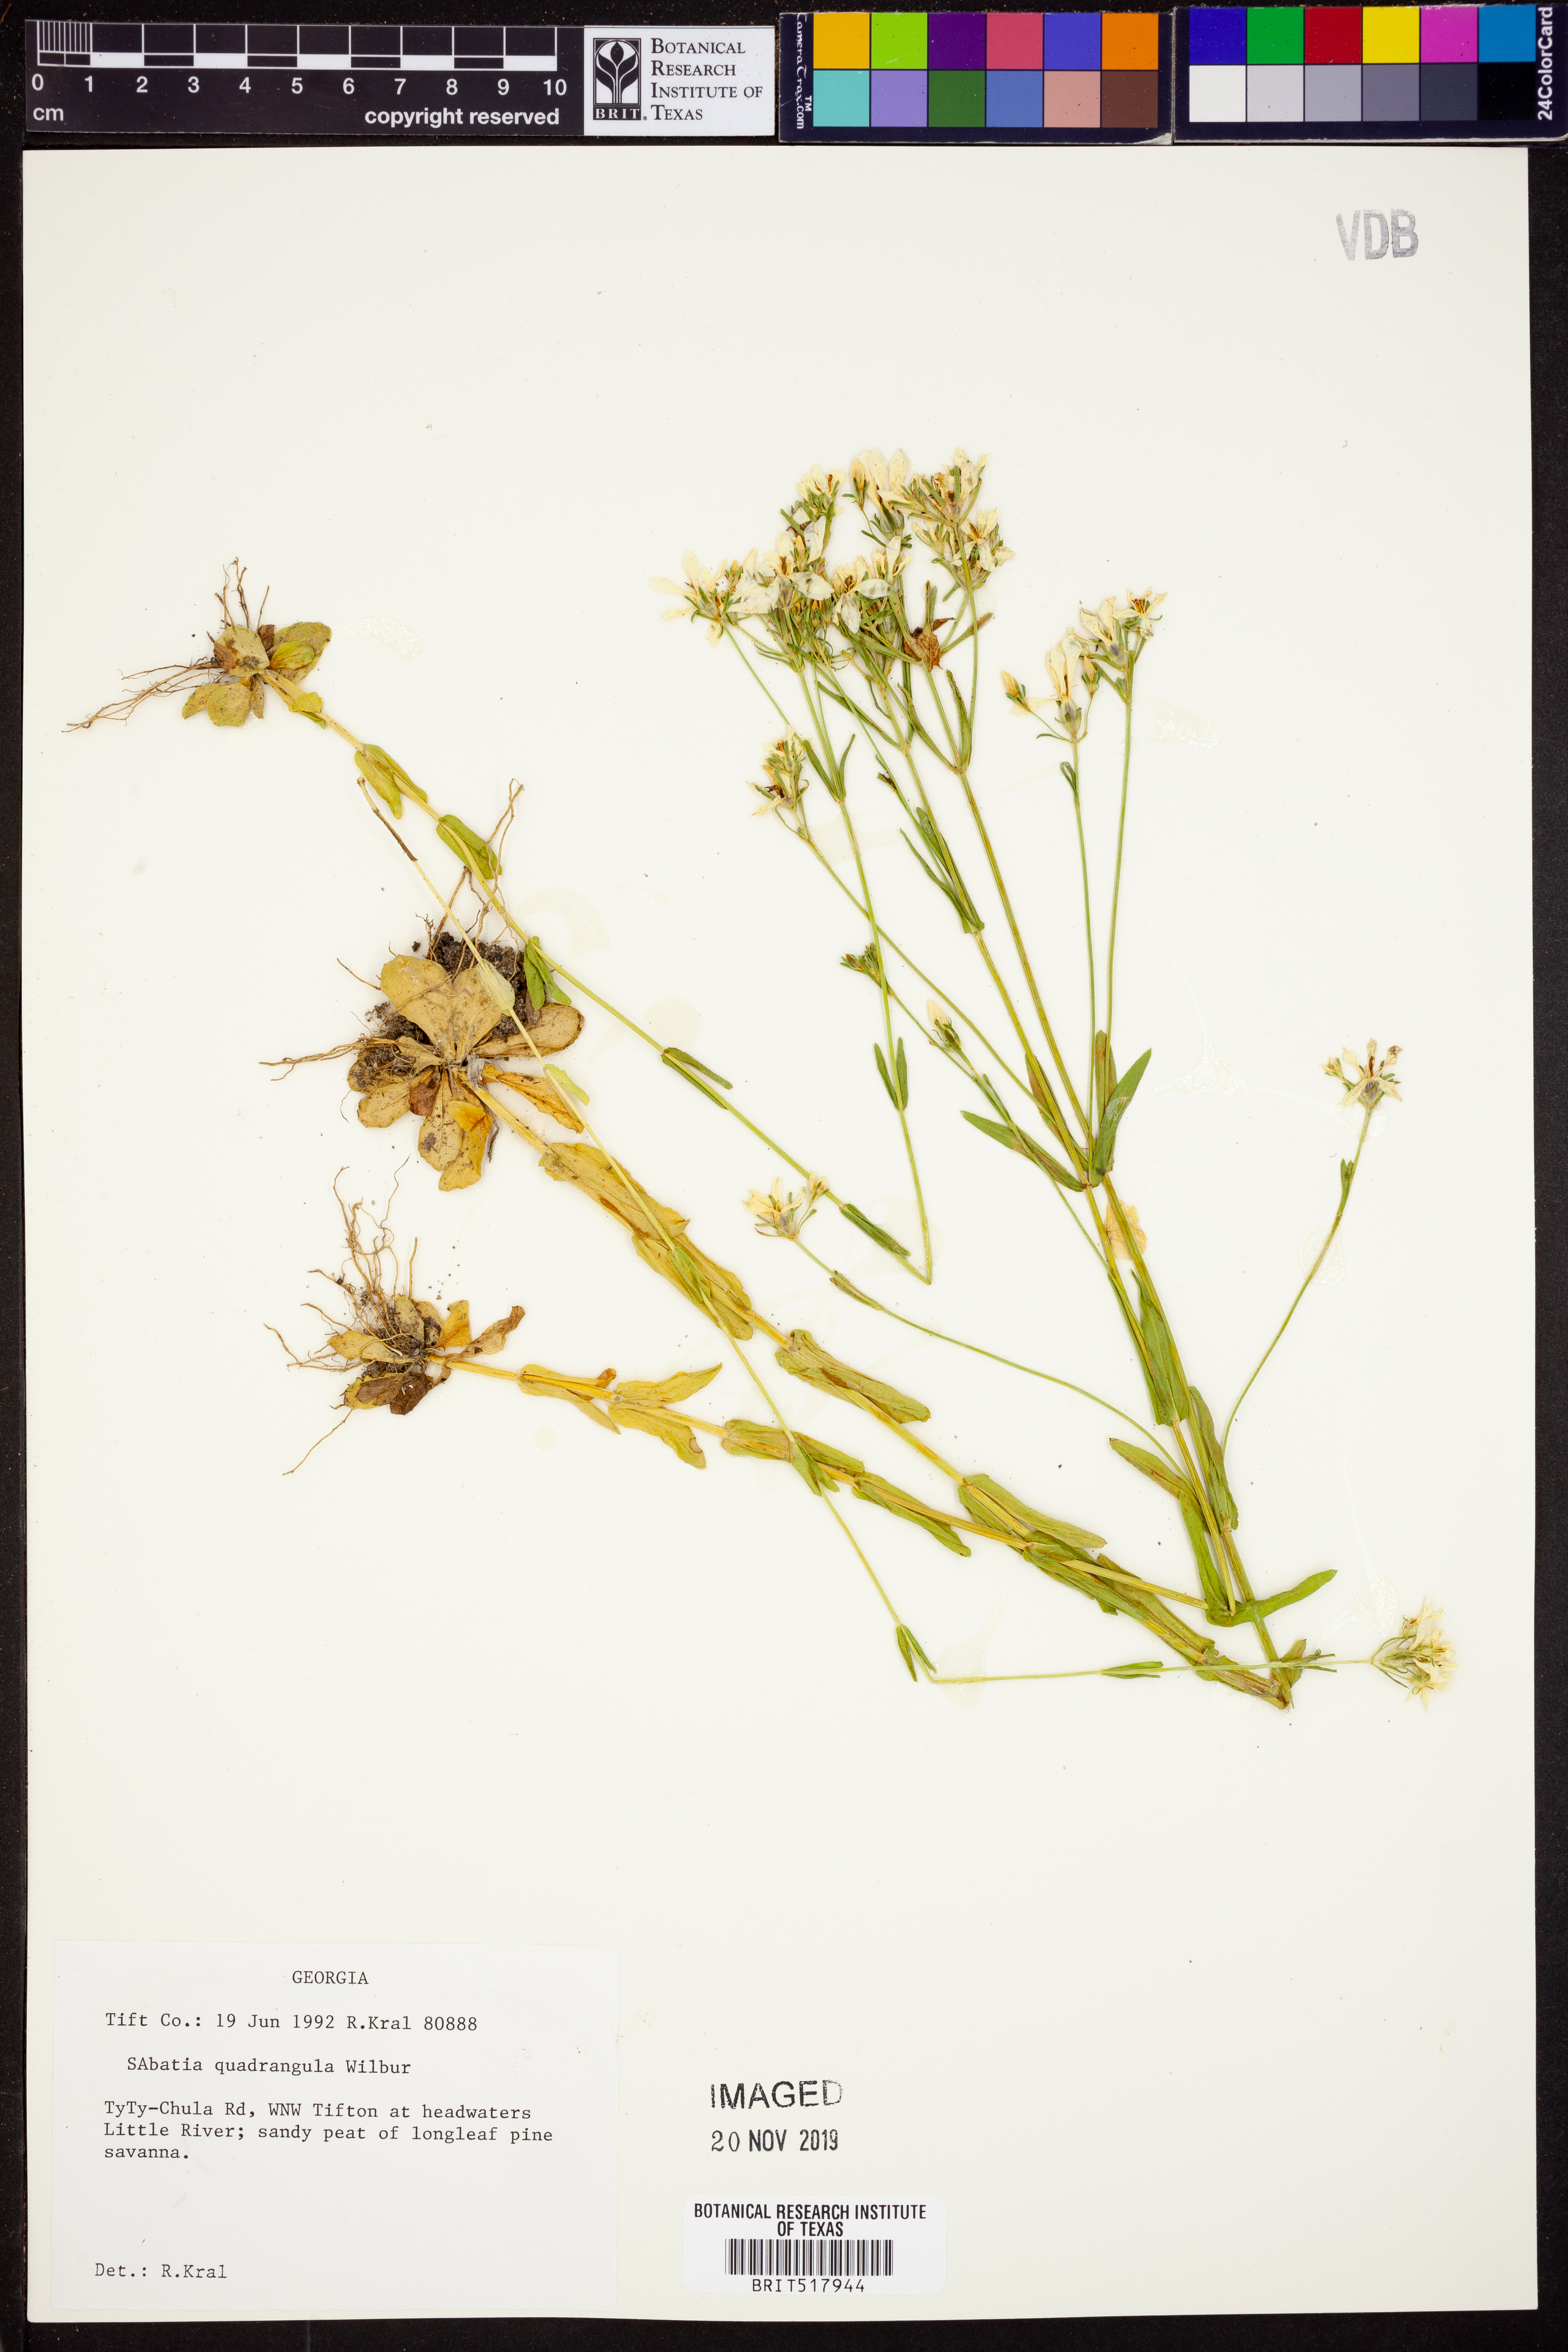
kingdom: Plantae
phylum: Tracheophyta
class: Magnoliopsida
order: Gentianales
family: Gentianaceae
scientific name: Gentianaceae
